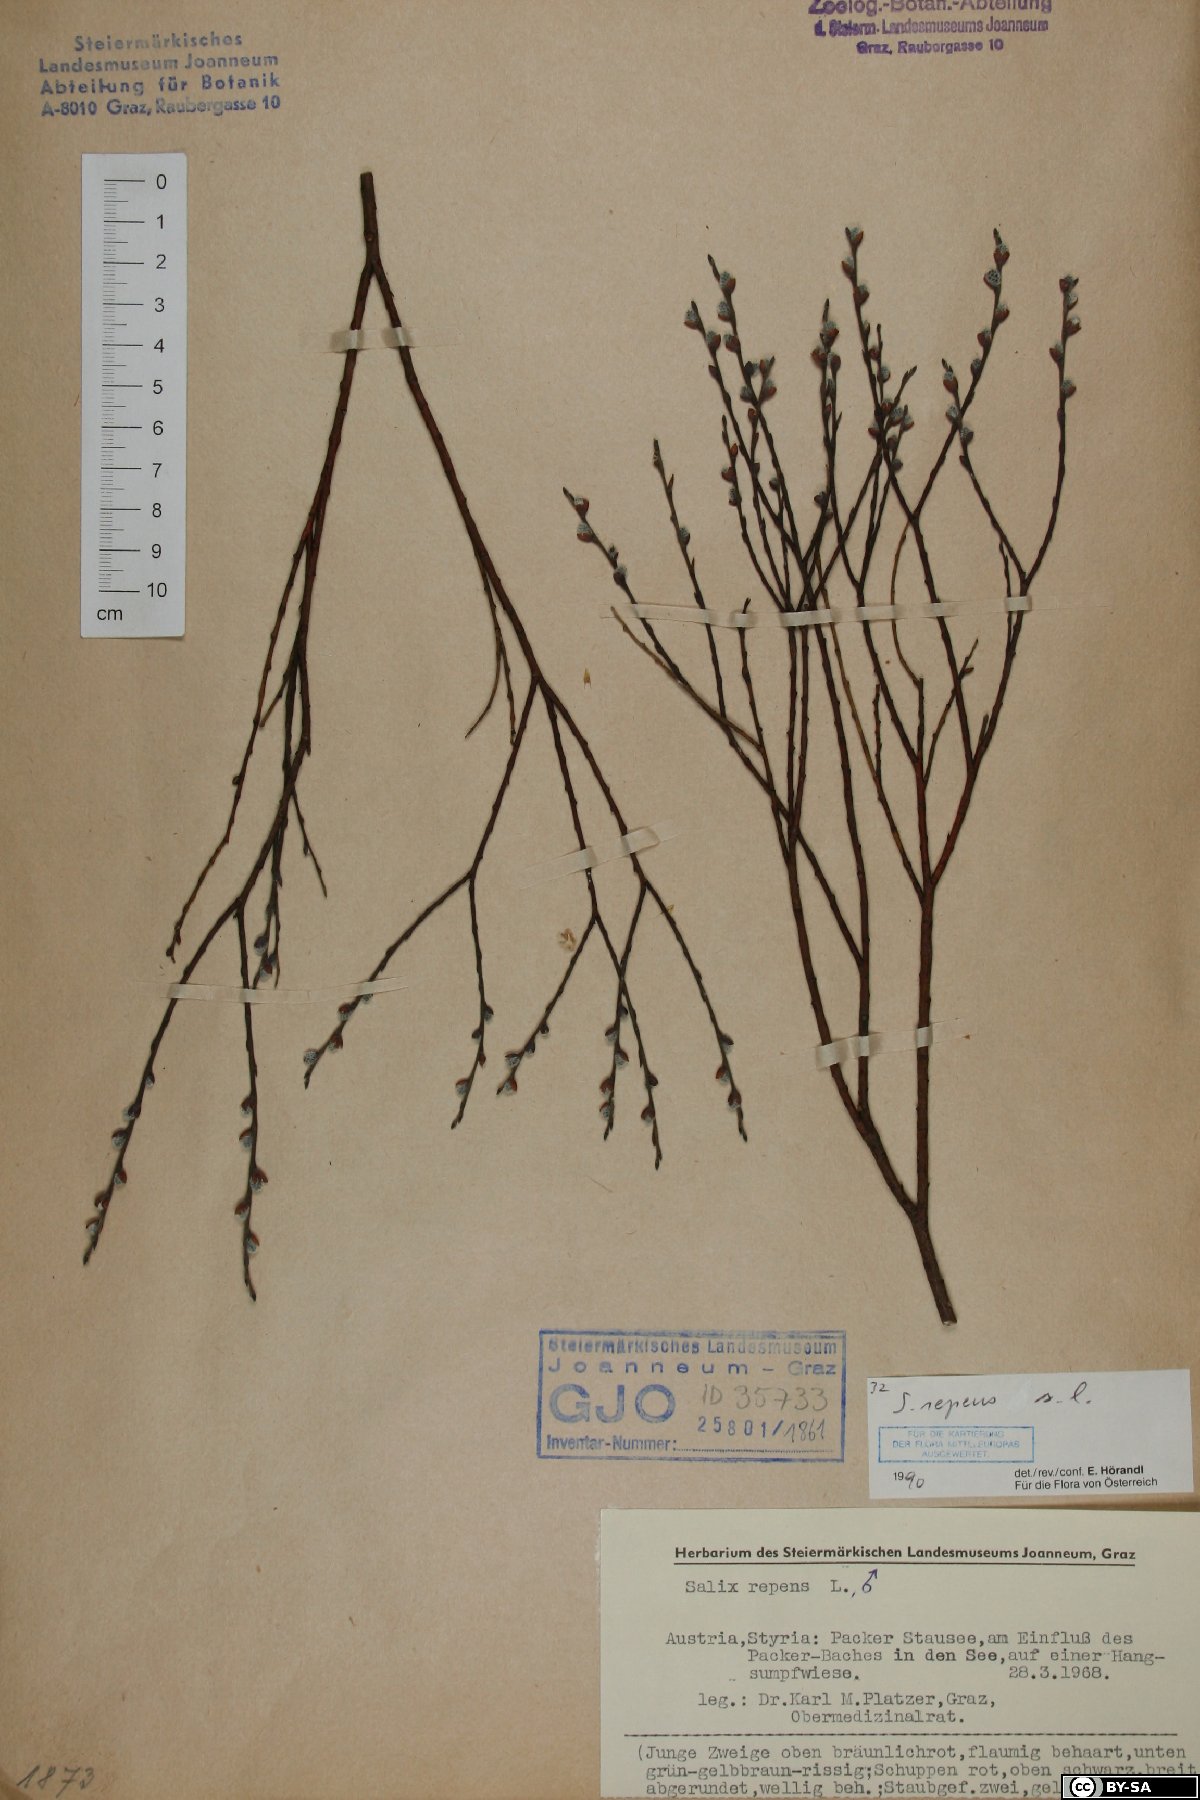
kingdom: Plantae
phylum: Tracheophyta
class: Magnoliopsida
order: Malpighiales
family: Salicaceae
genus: Salix
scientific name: Salix repens
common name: Creeping willow
